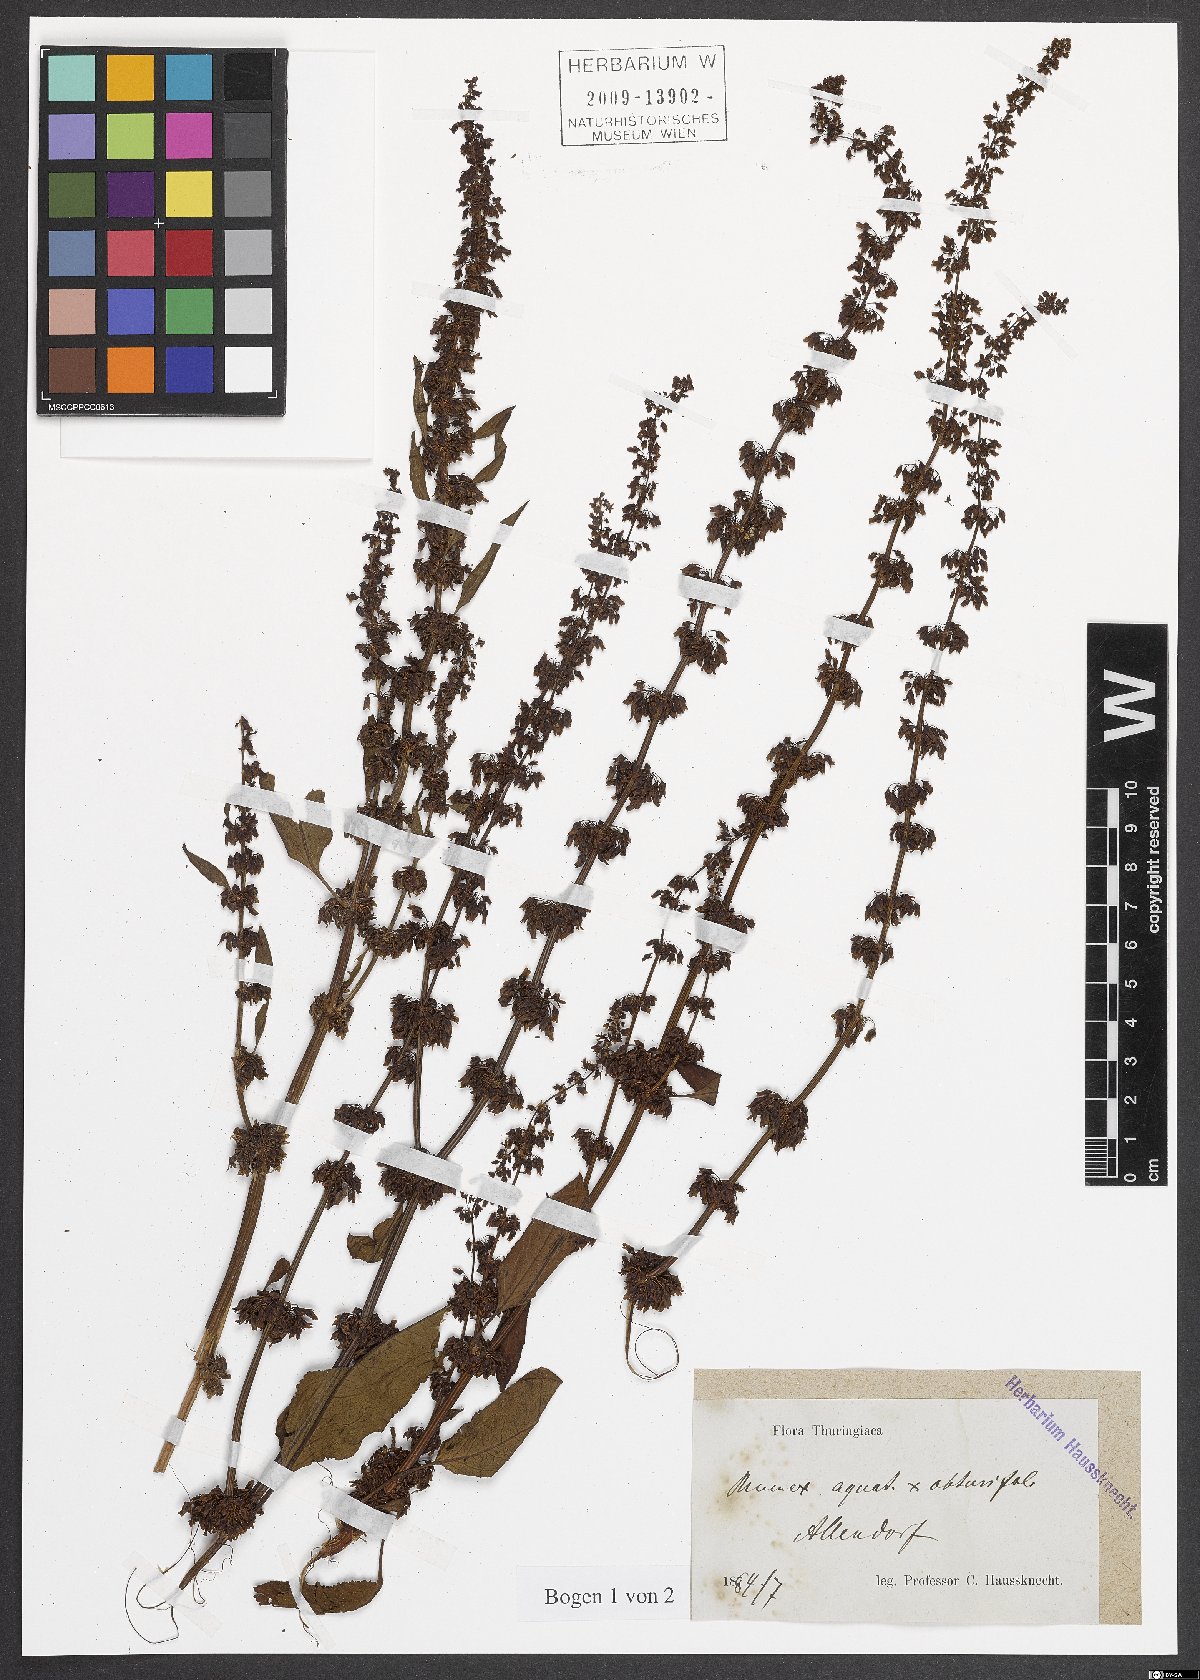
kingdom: Plantae
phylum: Tracheophyta
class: Magnoliopsida
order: Caryophyllales
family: Polygonaceae
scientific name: Polygonaceae
